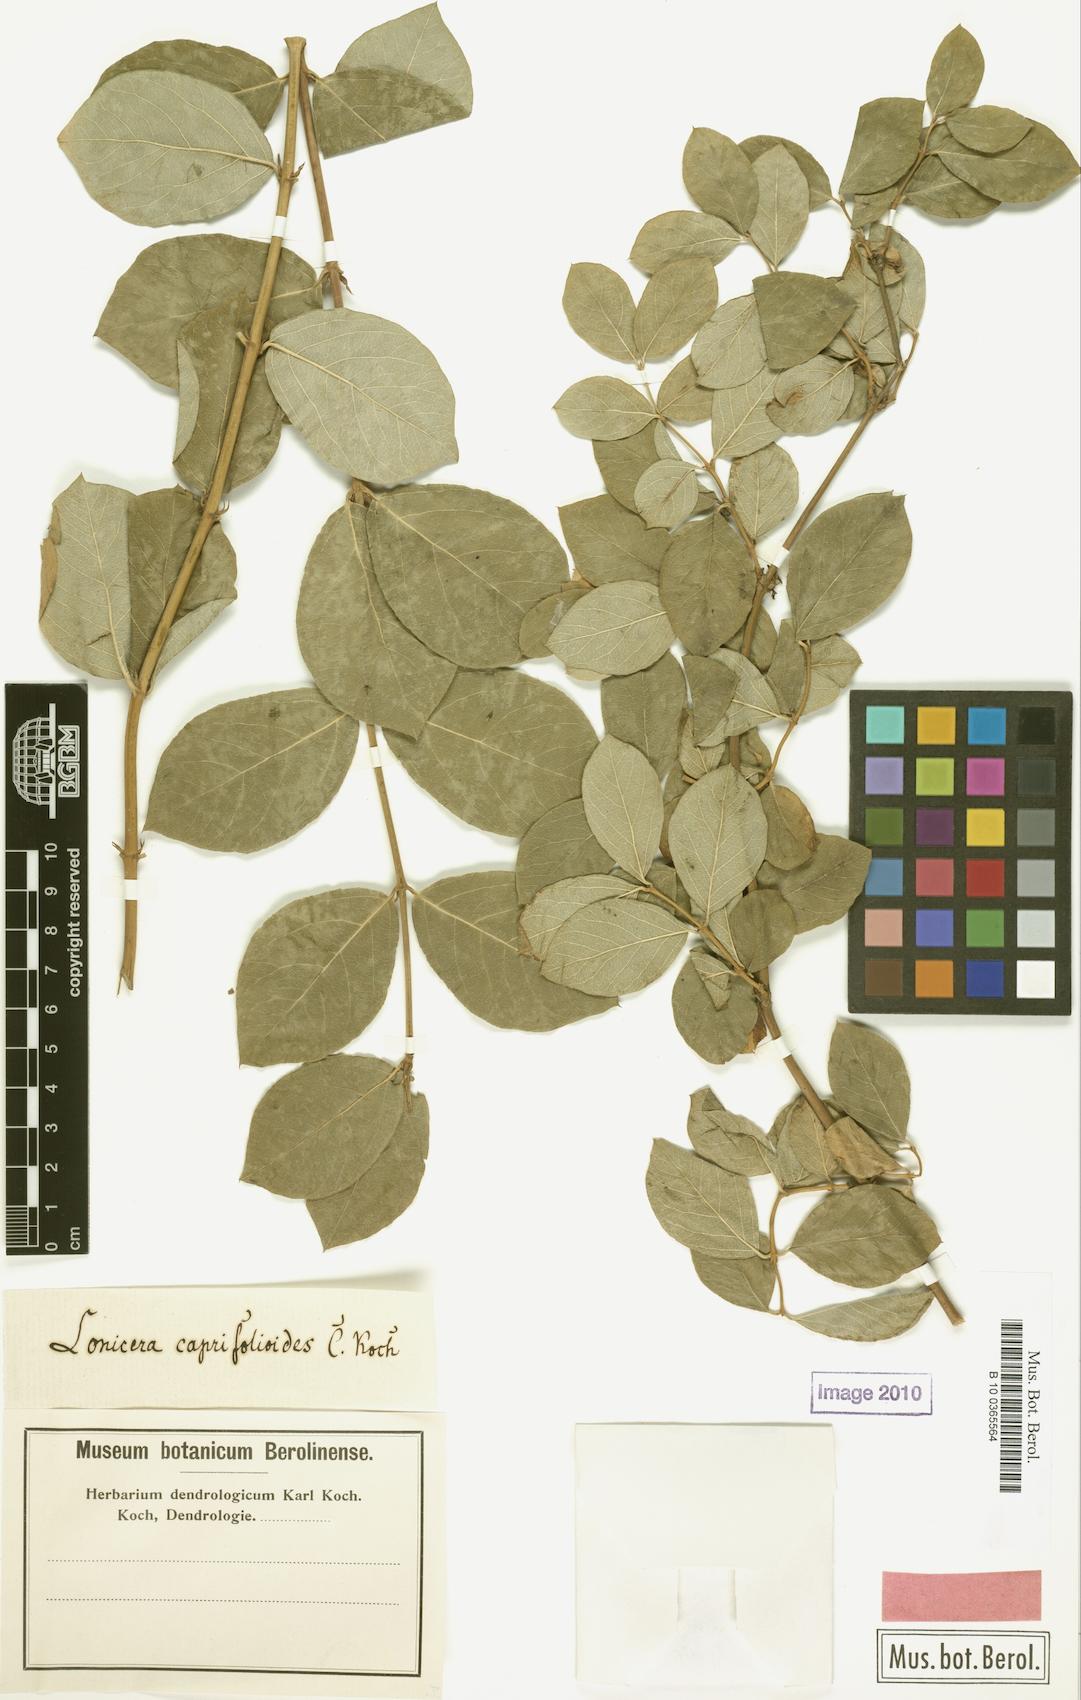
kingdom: Plantae
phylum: Tracheophyta
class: Magnoliopsida
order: Dipsacales
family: Caprifoliaceae
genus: Lonicera
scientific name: Lonicera fragrantissima
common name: Fragrant honeysuckle
